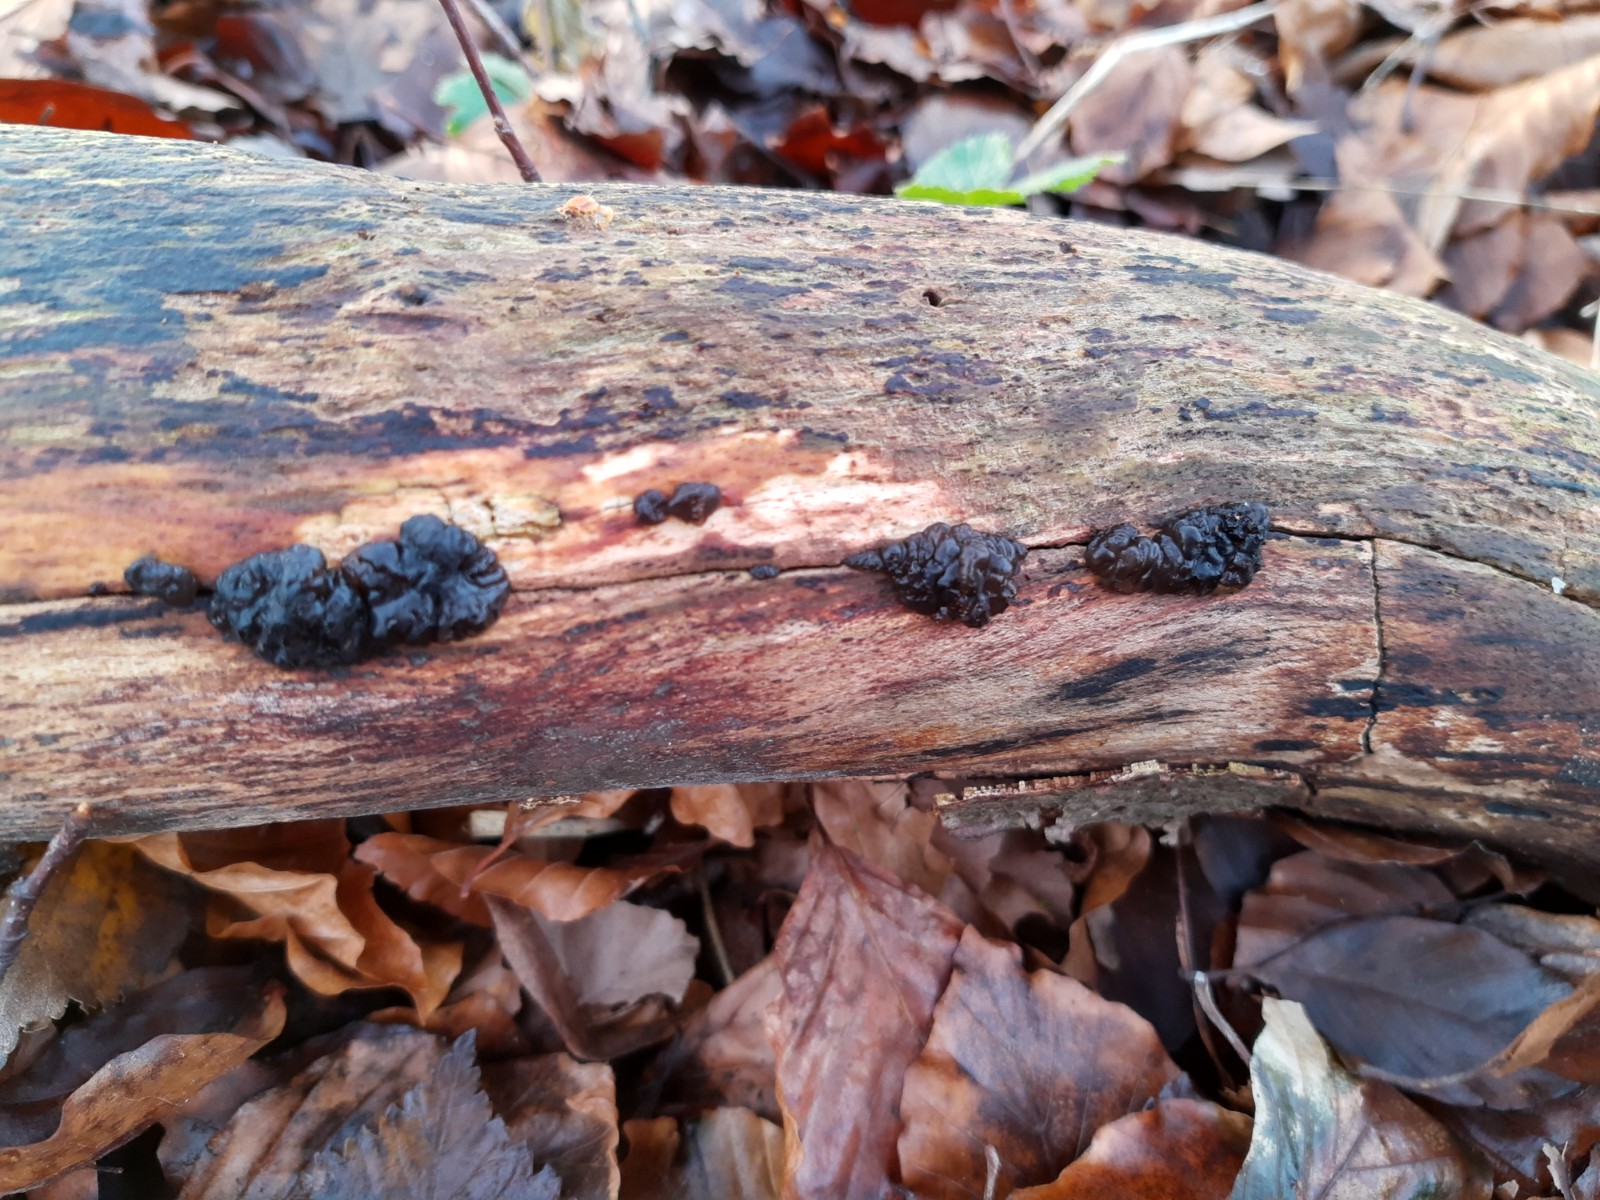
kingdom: Fungi
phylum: Basidiomycota
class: Agaricomycetes
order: Auriculariales
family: Auriculariaceae
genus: Exidia
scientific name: Exidia nigricans
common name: almindelig bævretop
